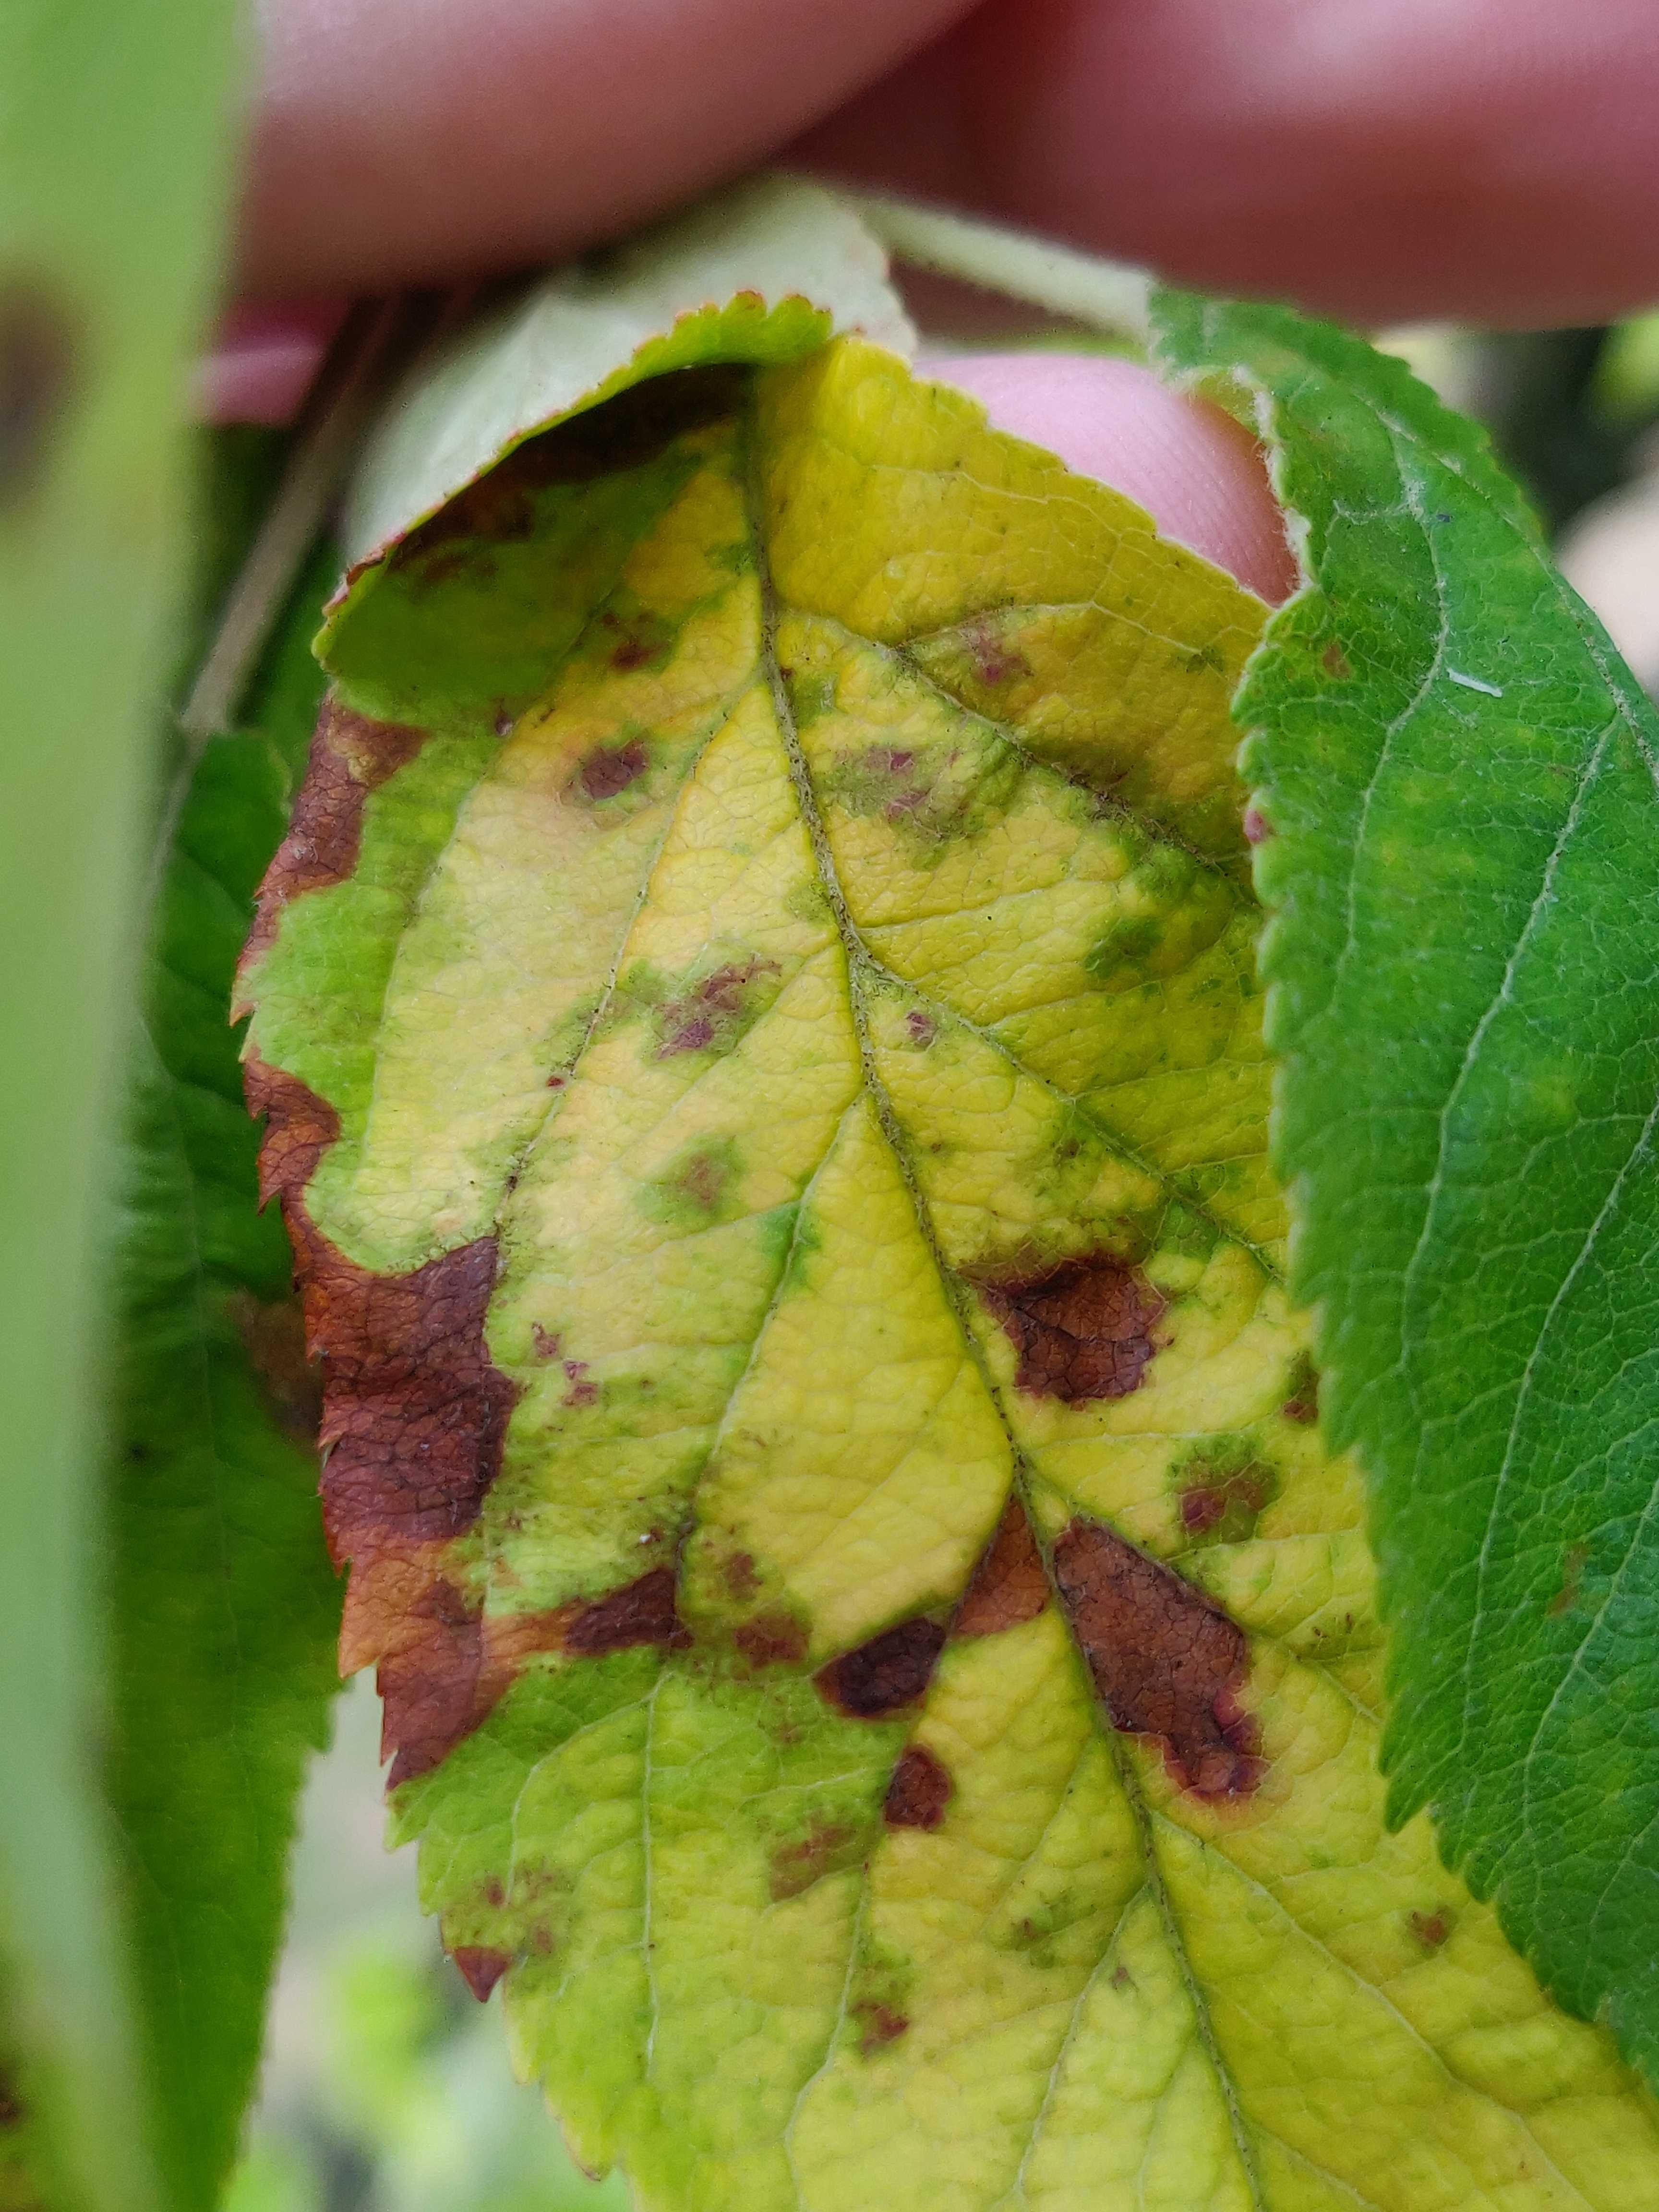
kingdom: Fungi
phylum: Ascomycota
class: Dothideomycetes
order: Venturiales
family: Venturiaceae
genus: Venturia
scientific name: Venturia inaequalis
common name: Apple scab
